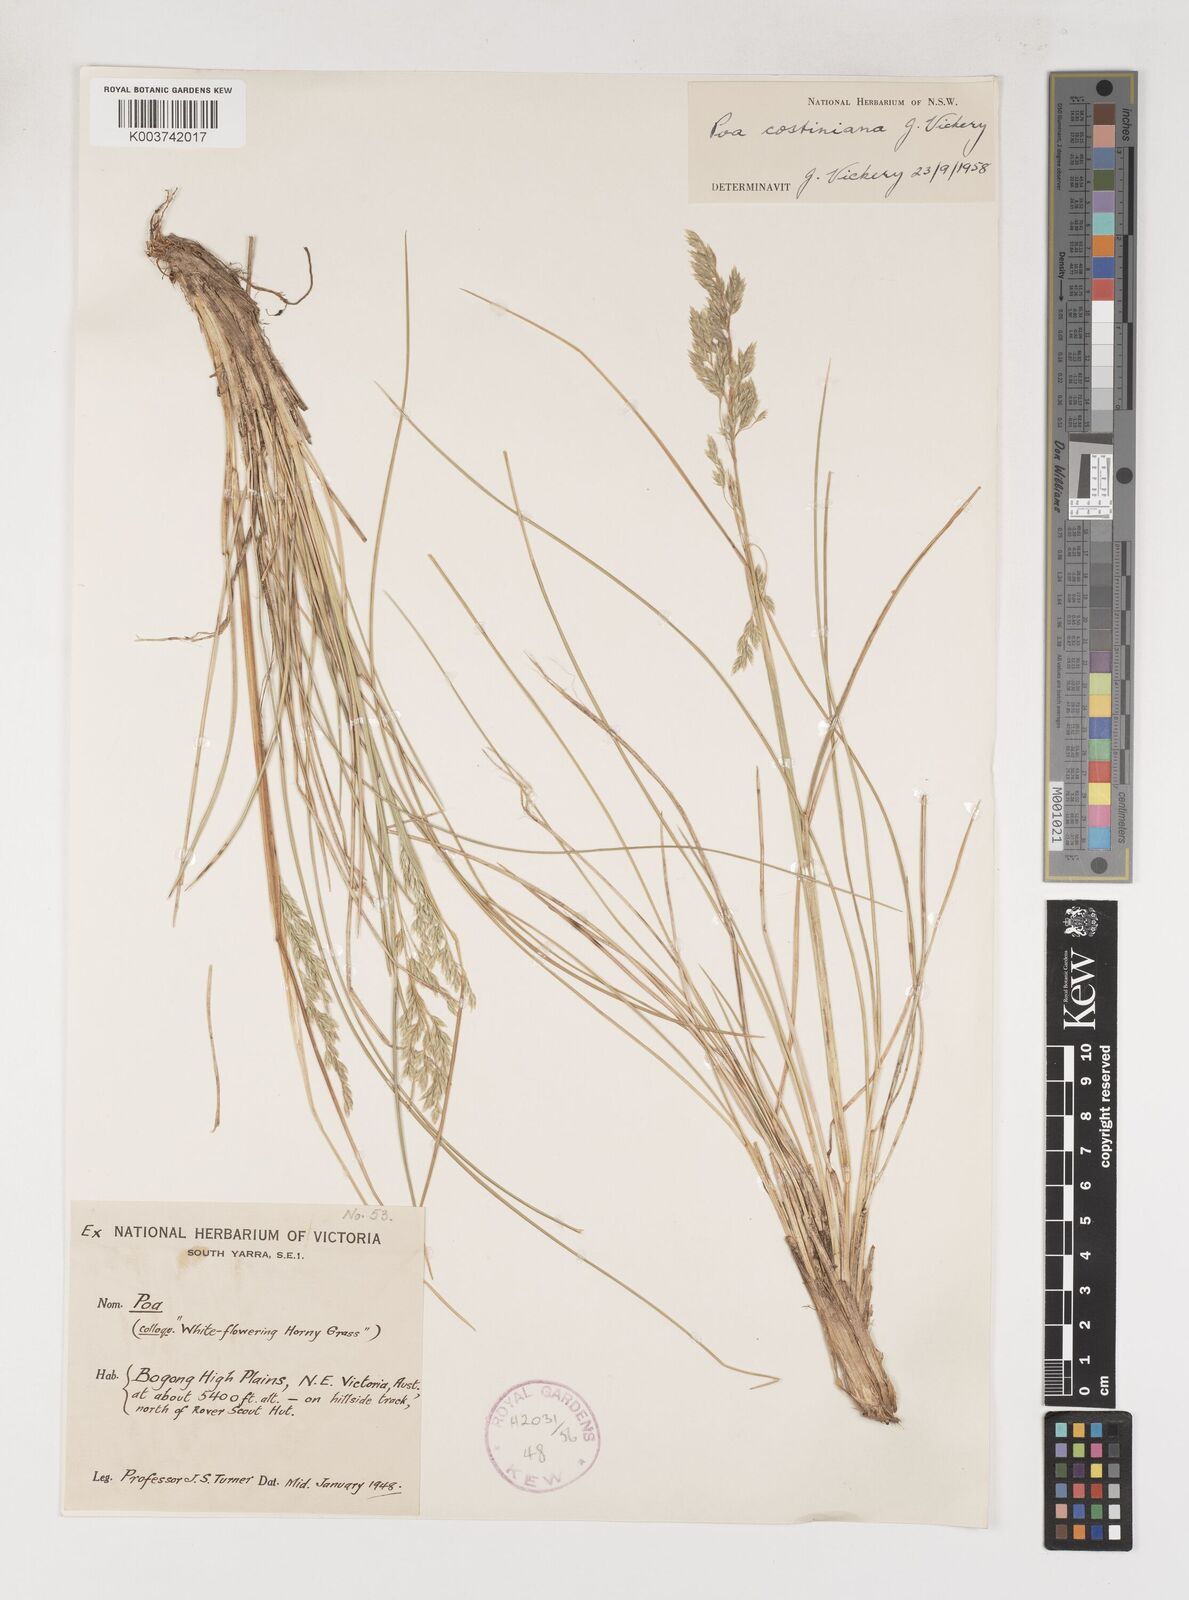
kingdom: Plantae
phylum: Tracheophyta
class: Liliopsida
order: Poales
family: Poaceae
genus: Poa
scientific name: Poa costiniana
